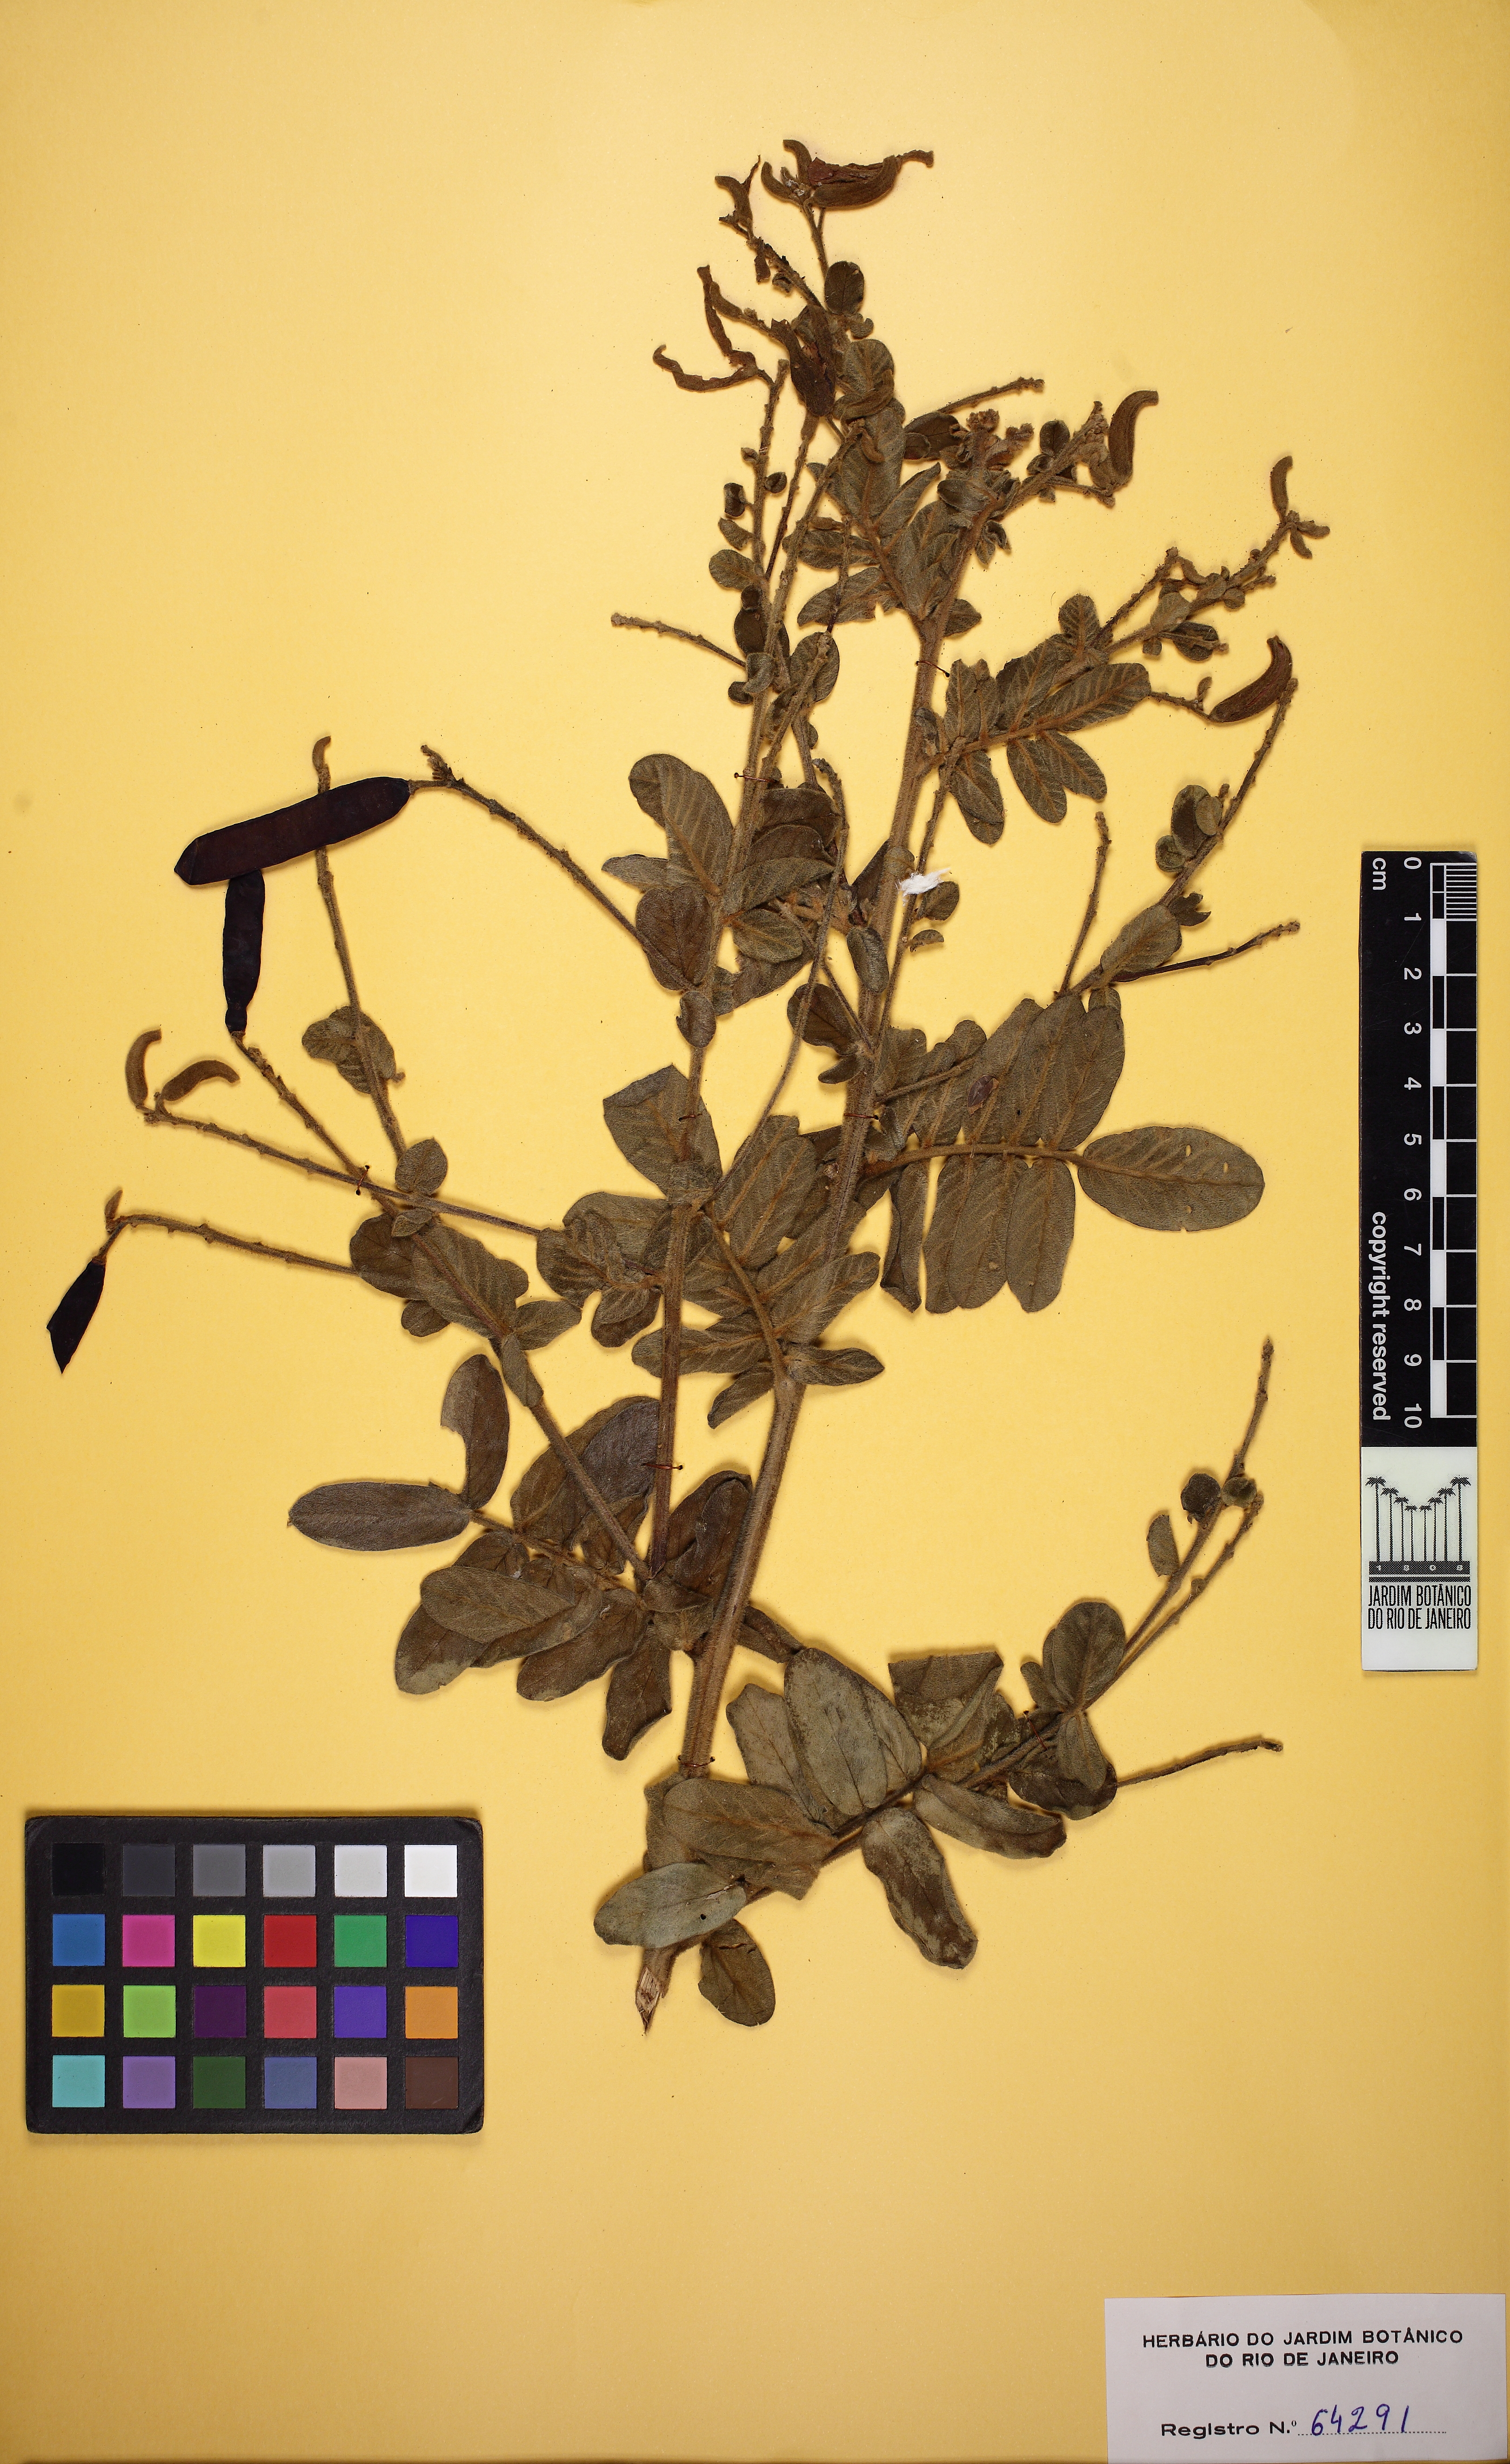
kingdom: Plantae
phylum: Tracheophyta
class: Magnoliopsida
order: Fabales
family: Fabaceae
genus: Harpalyce
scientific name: Harpalyce brasiliana
